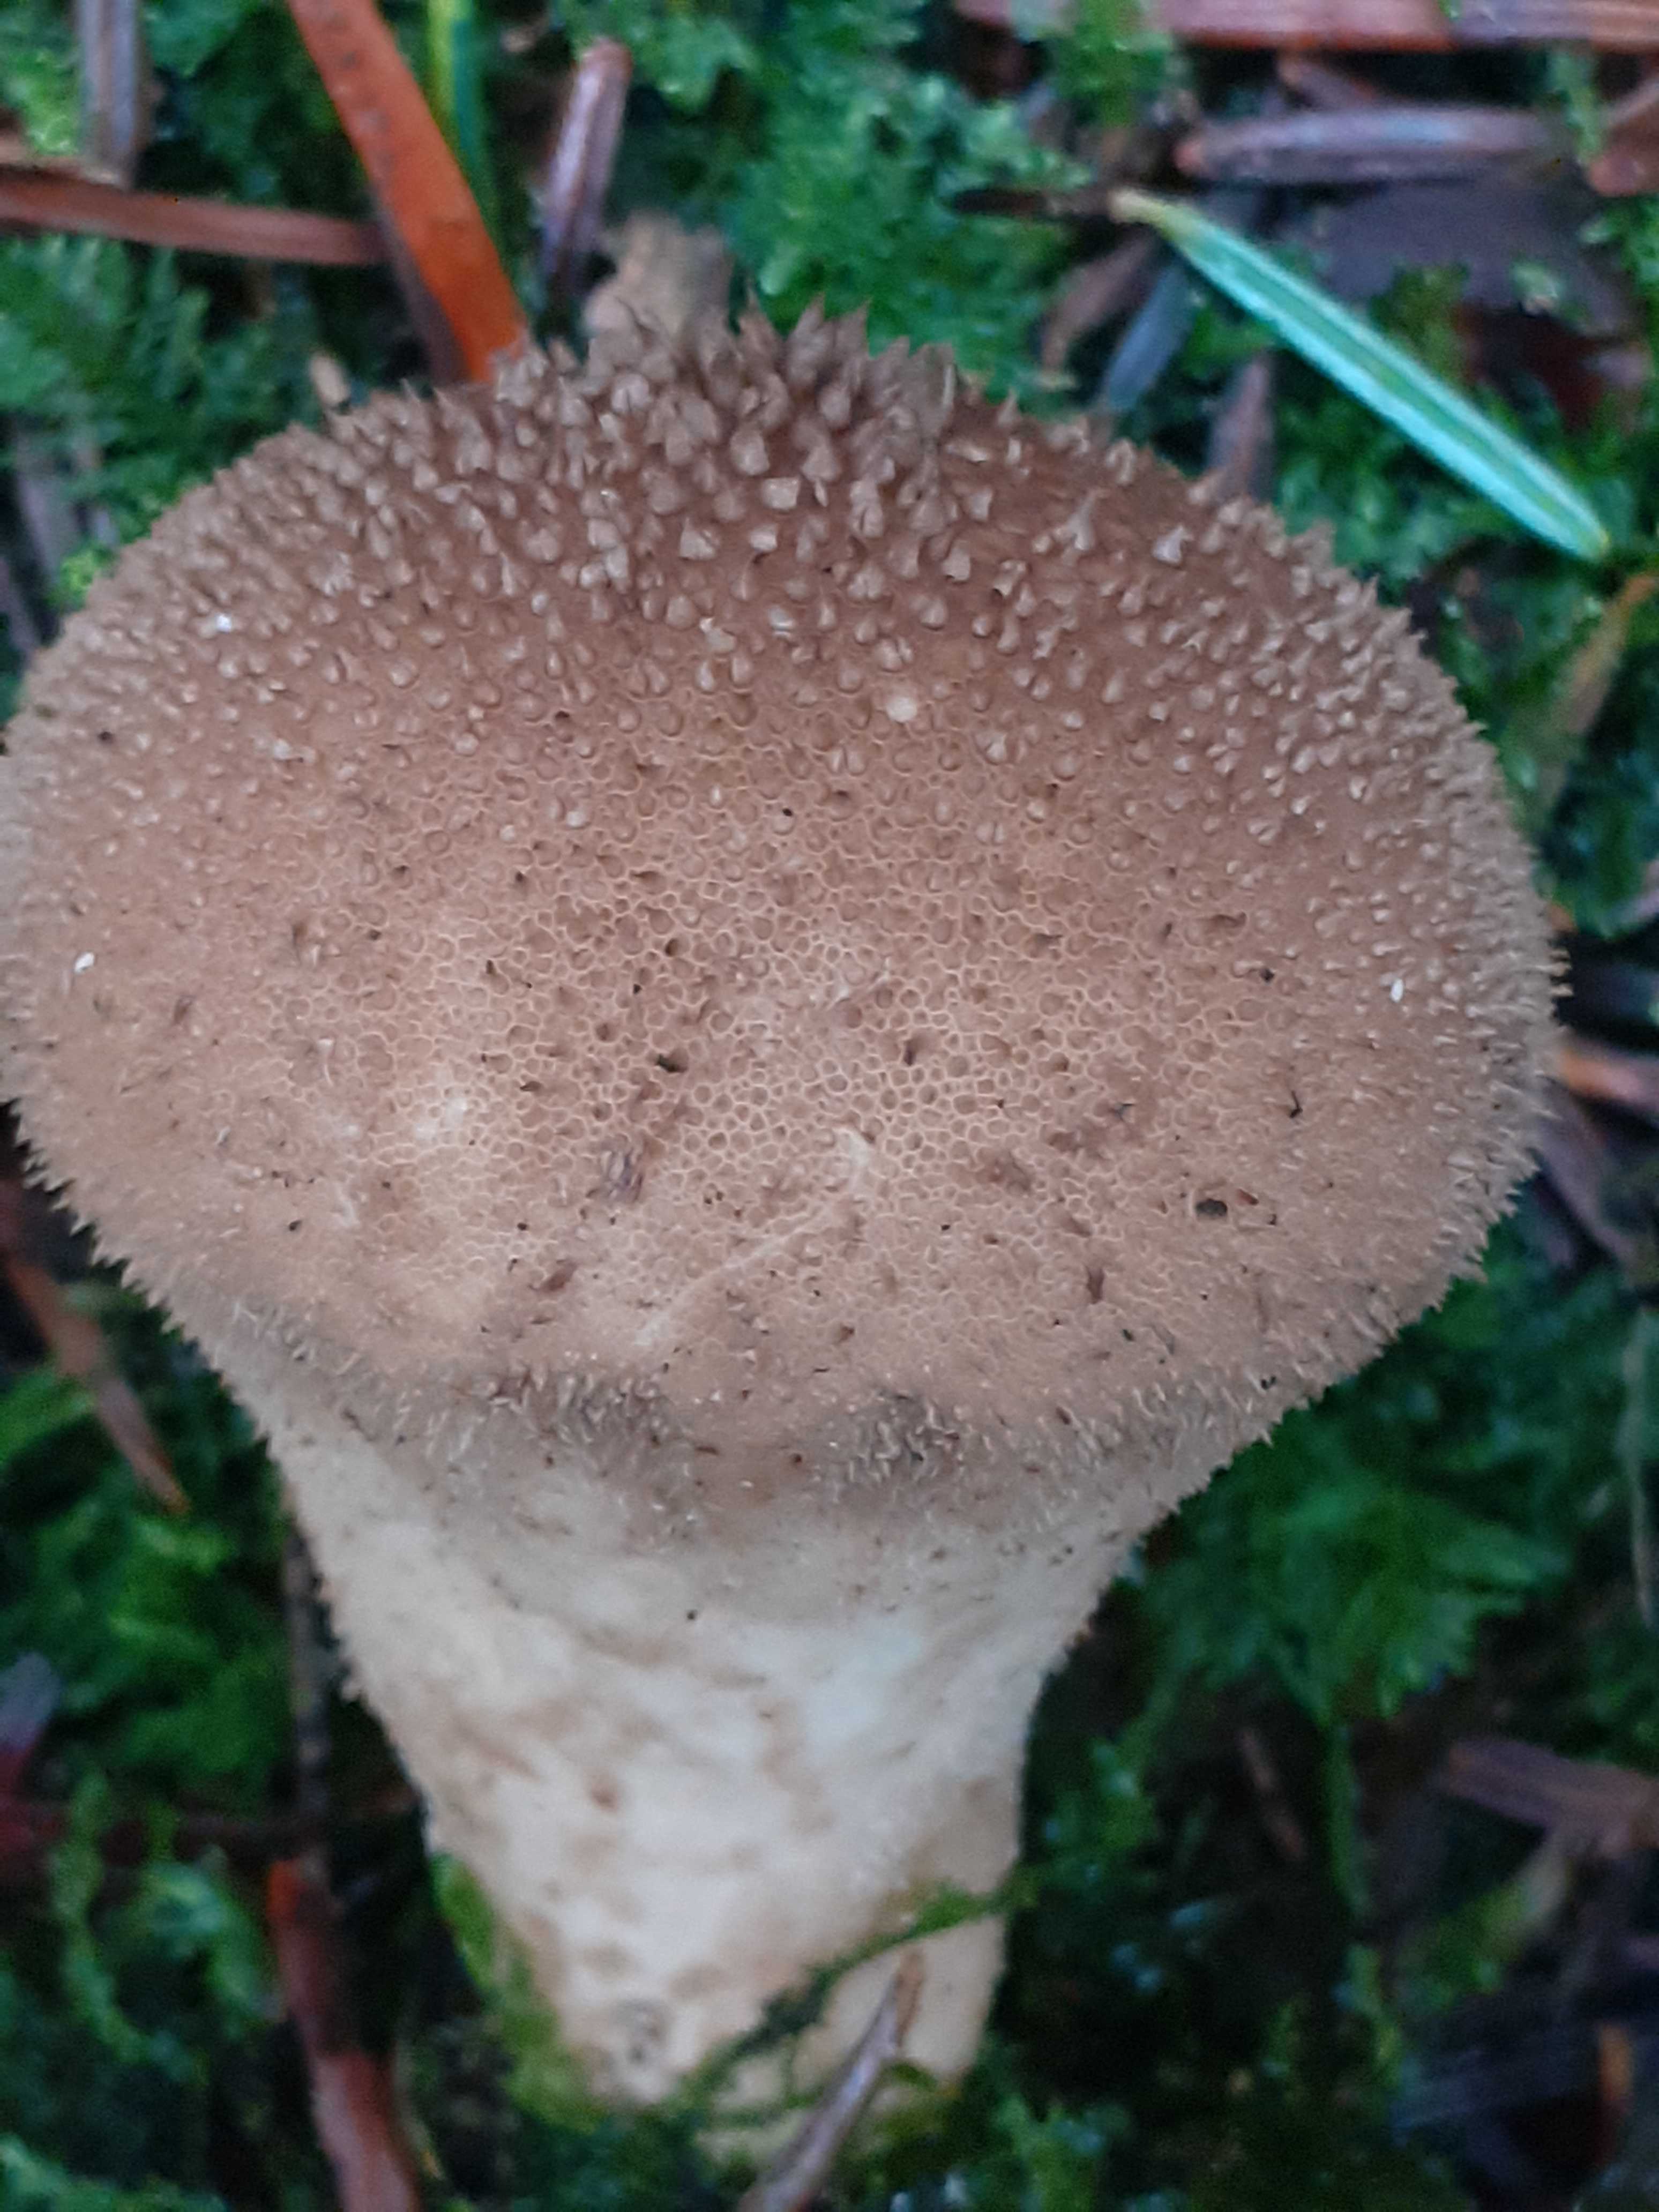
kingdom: Fungi
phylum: Basidiomycota
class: Agaricomycetes
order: Agaricales
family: Lycoperdaceae
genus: Lycoperdon
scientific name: Lycoperdon nigrescens
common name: sortagtig støvbold
